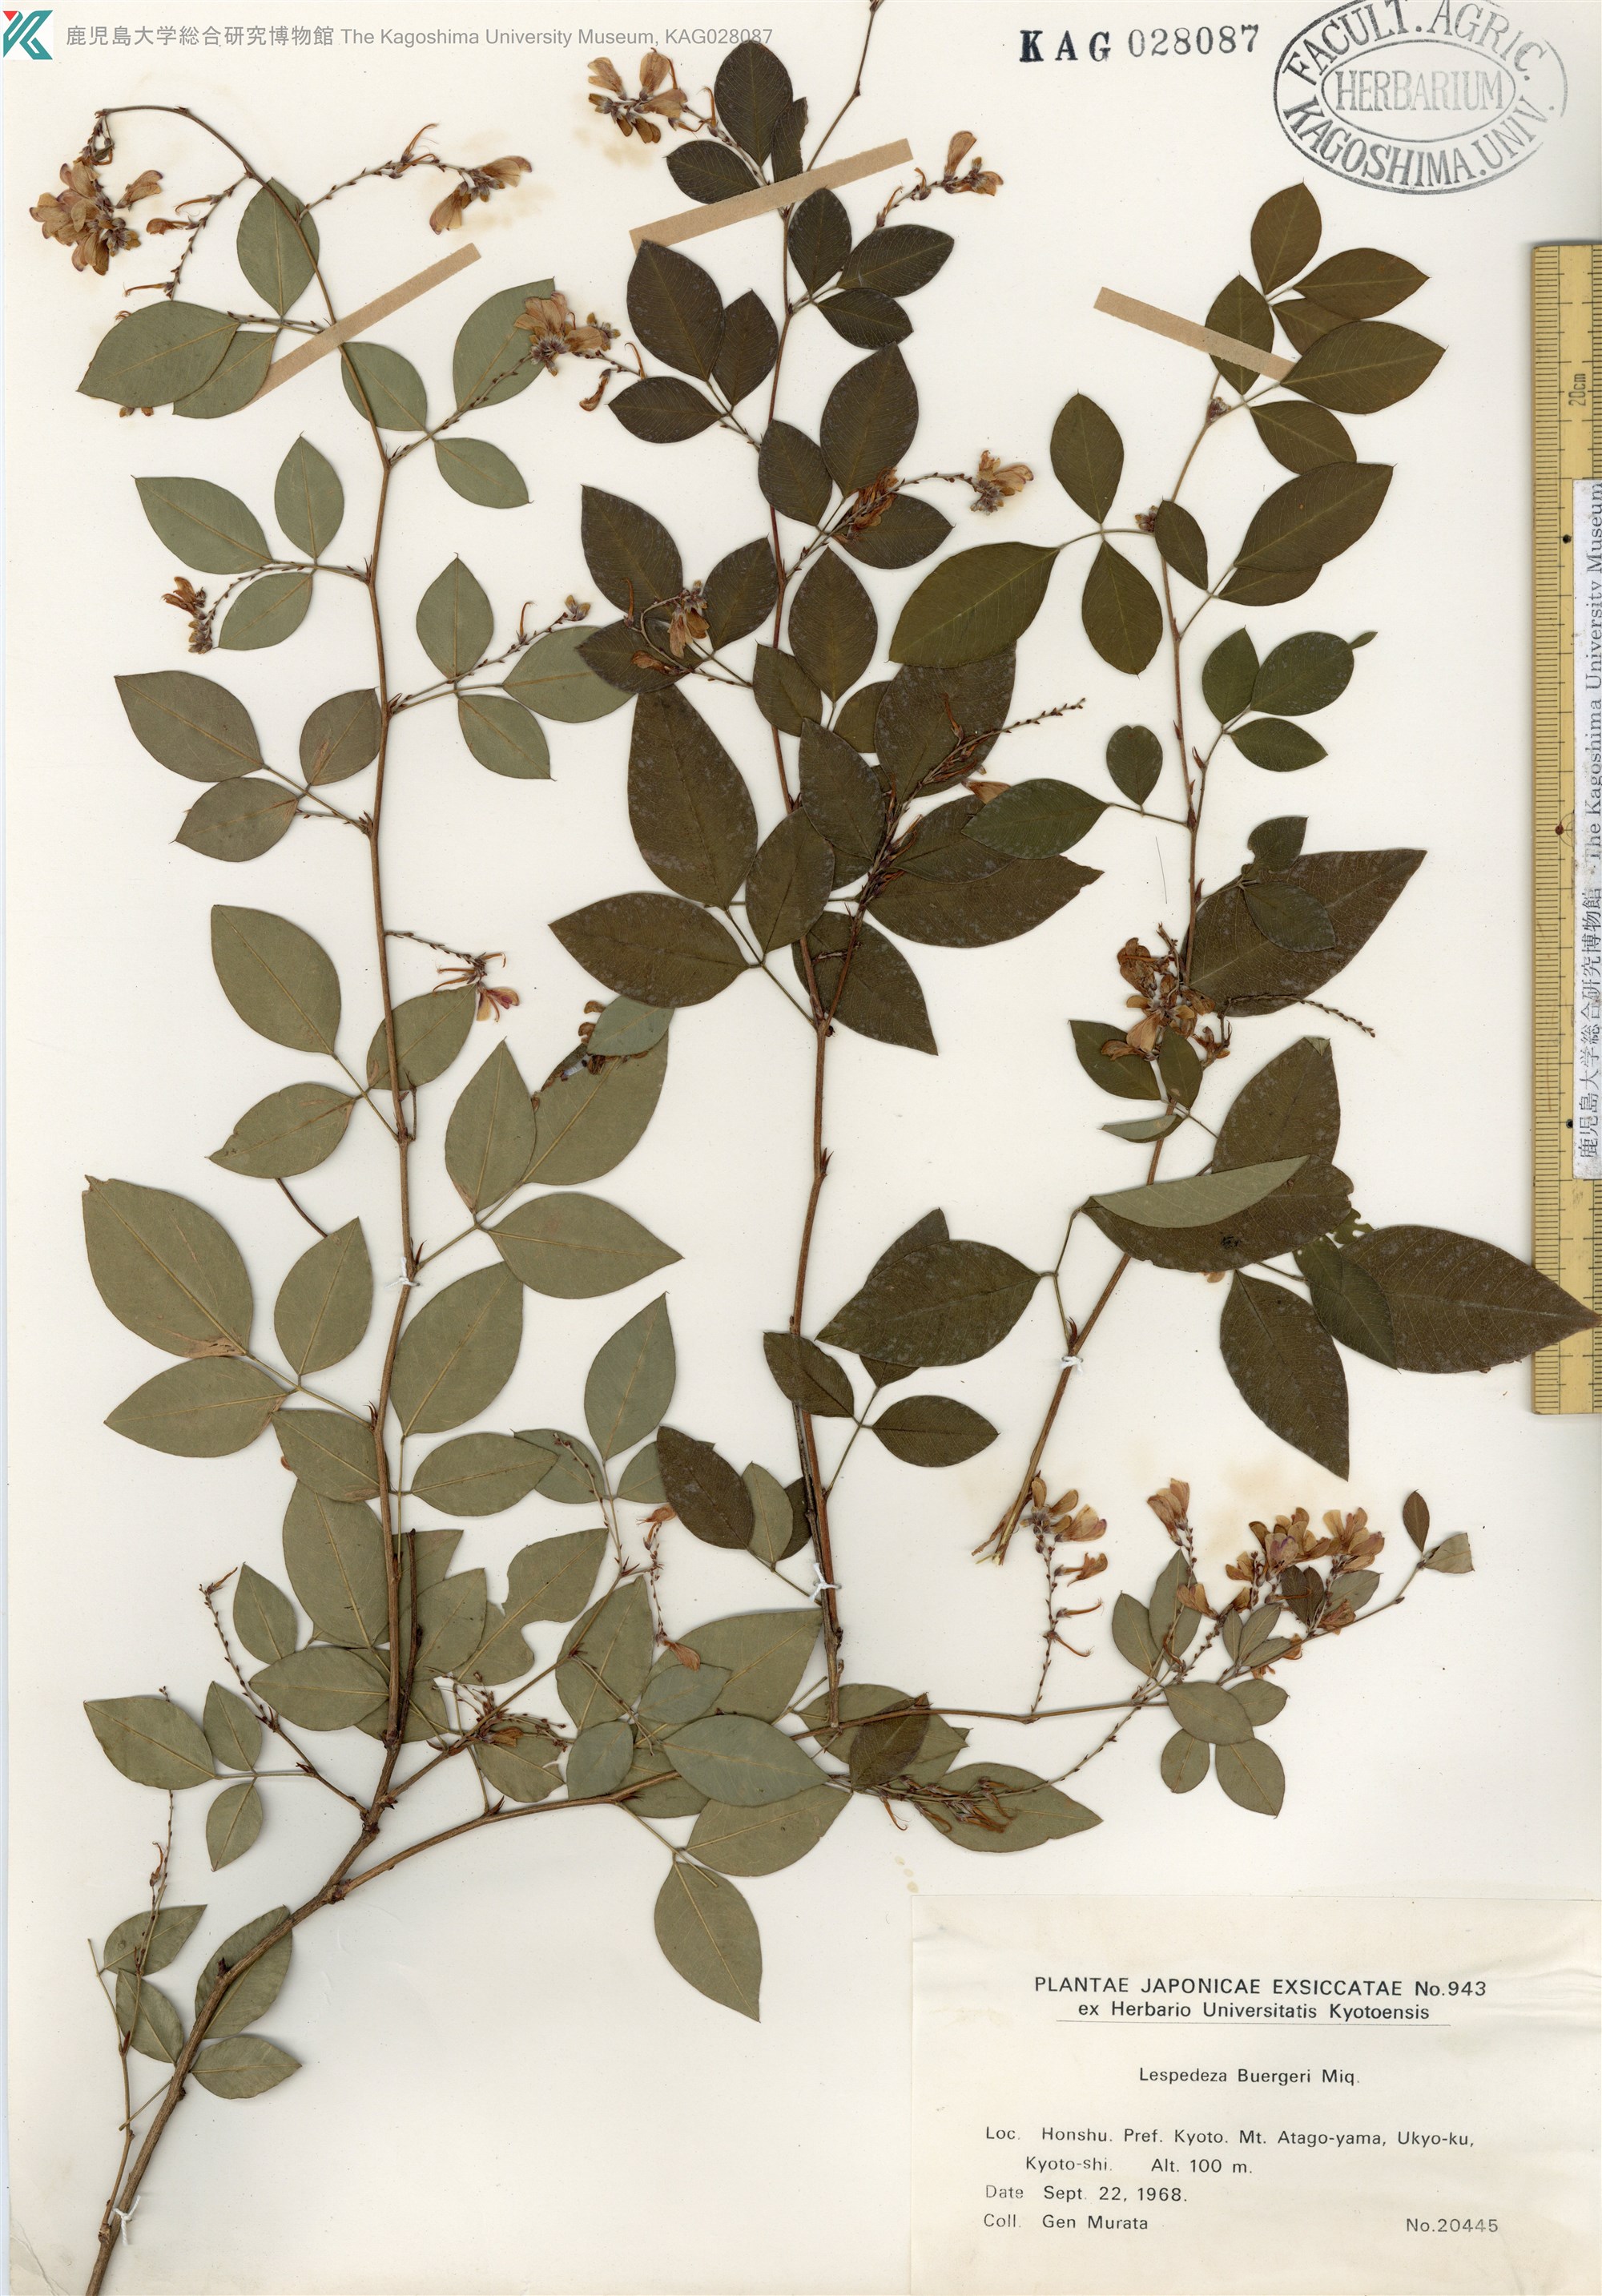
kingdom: Plantae
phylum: Tracheophyta
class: Magnoliopsida
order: Fabales
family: Fabaceae
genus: Lespedeza
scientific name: Lespedeza buergeri
